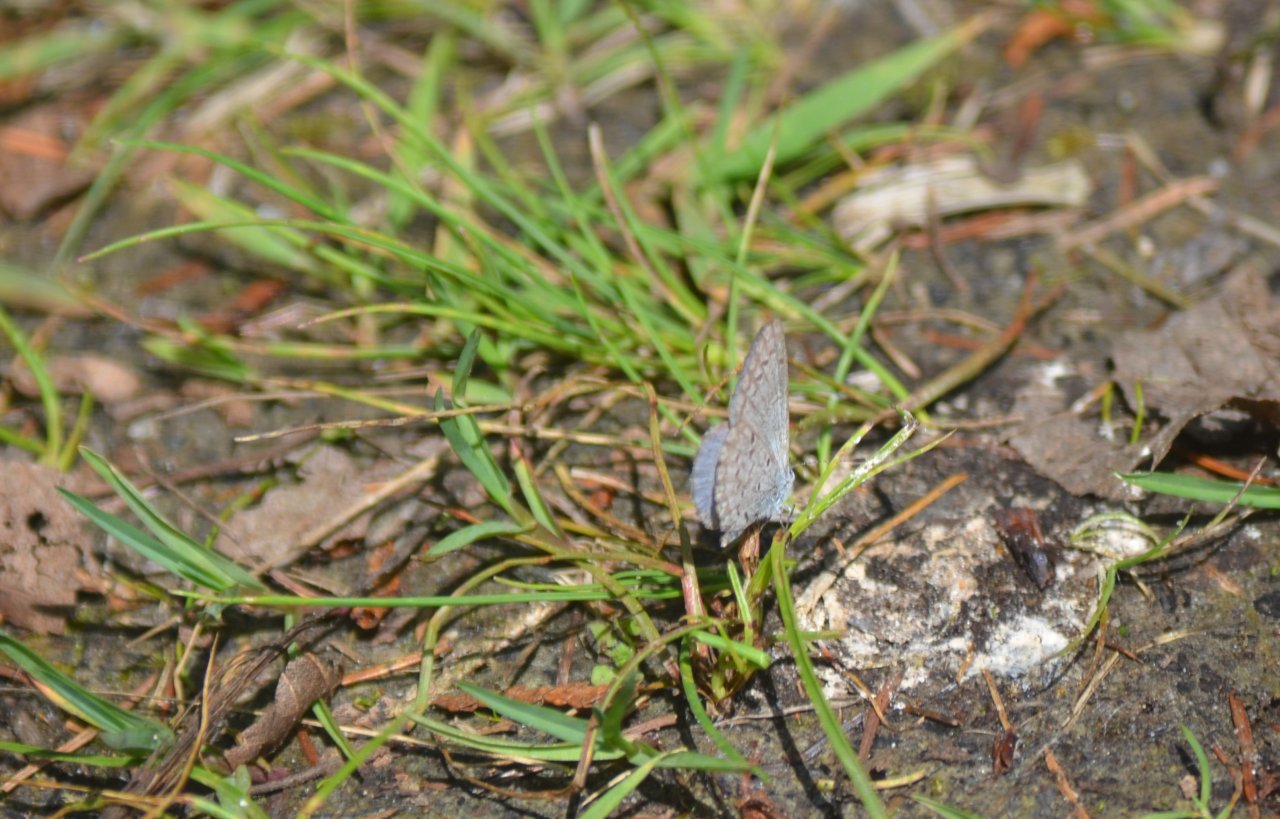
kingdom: Animalia
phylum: Arthropoda
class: Insecta
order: Lepidoptera
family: Lycaenidae
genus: Celastrina
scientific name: Celastrina lucia
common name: Northern Spring Azure
